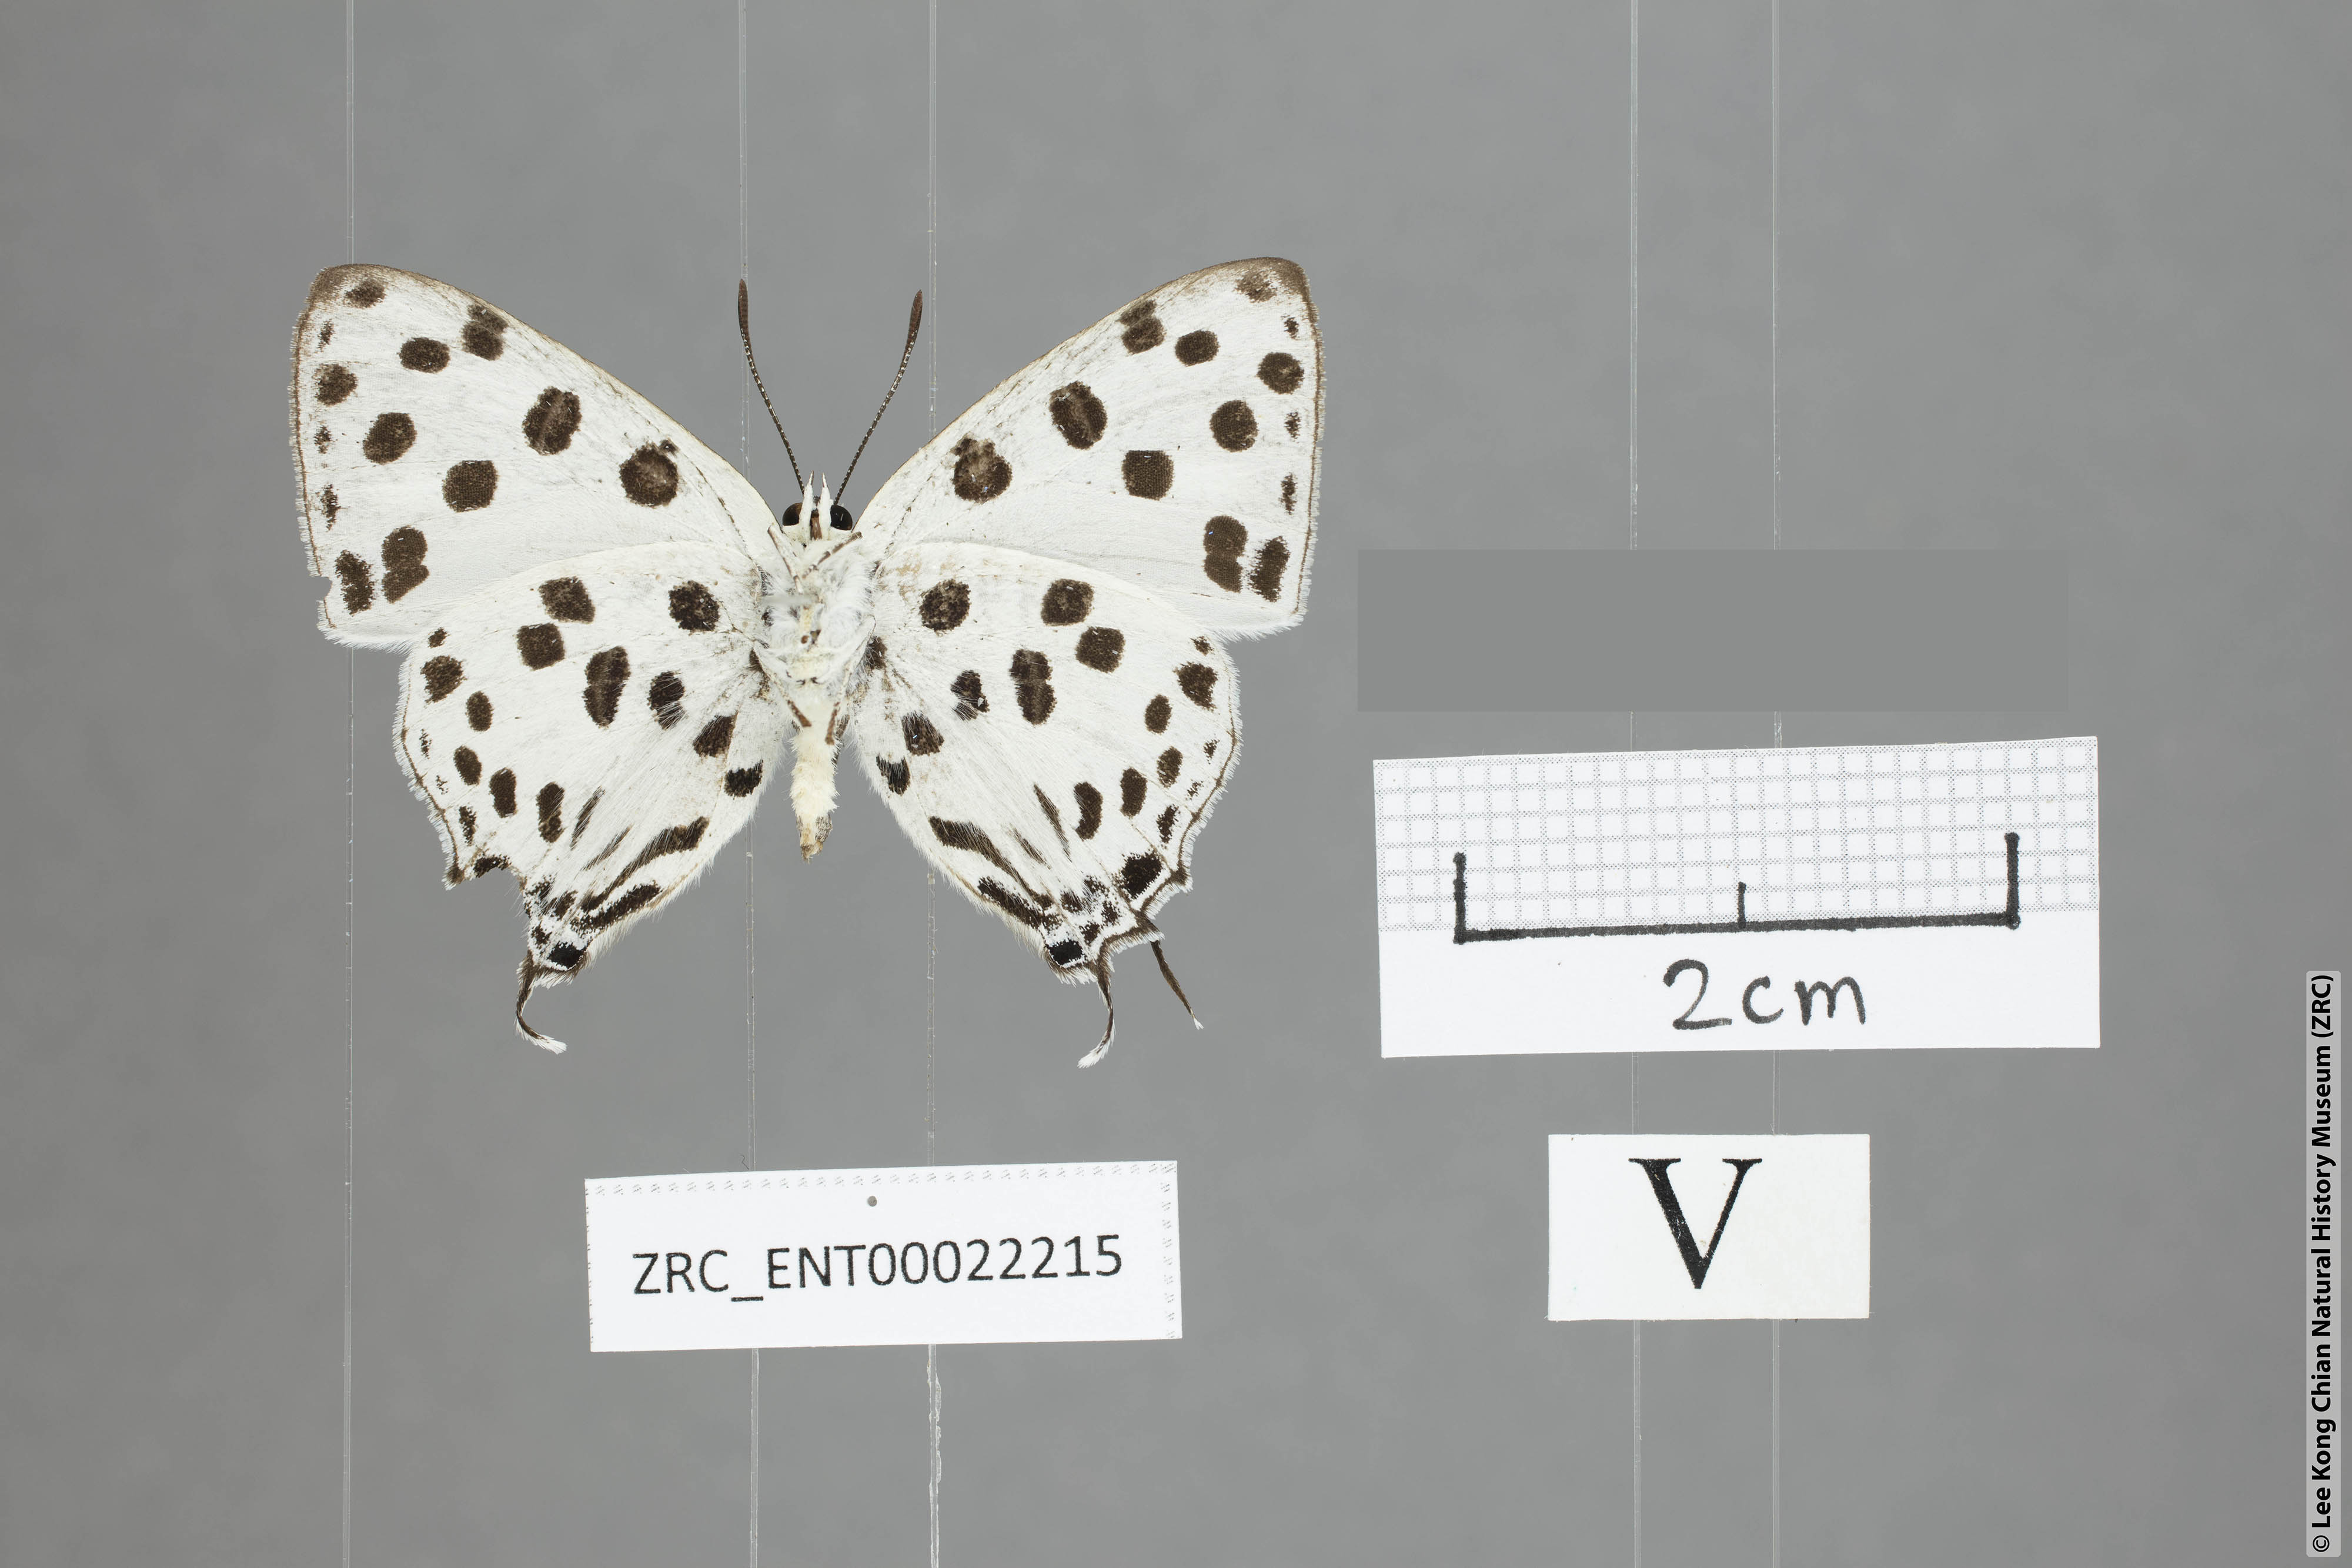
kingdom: Animalia
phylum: Arthropoda
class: Insecta
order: Lepidoptera
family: Lycaenidae
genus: Tajuria
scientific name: Tajuria maculatus
